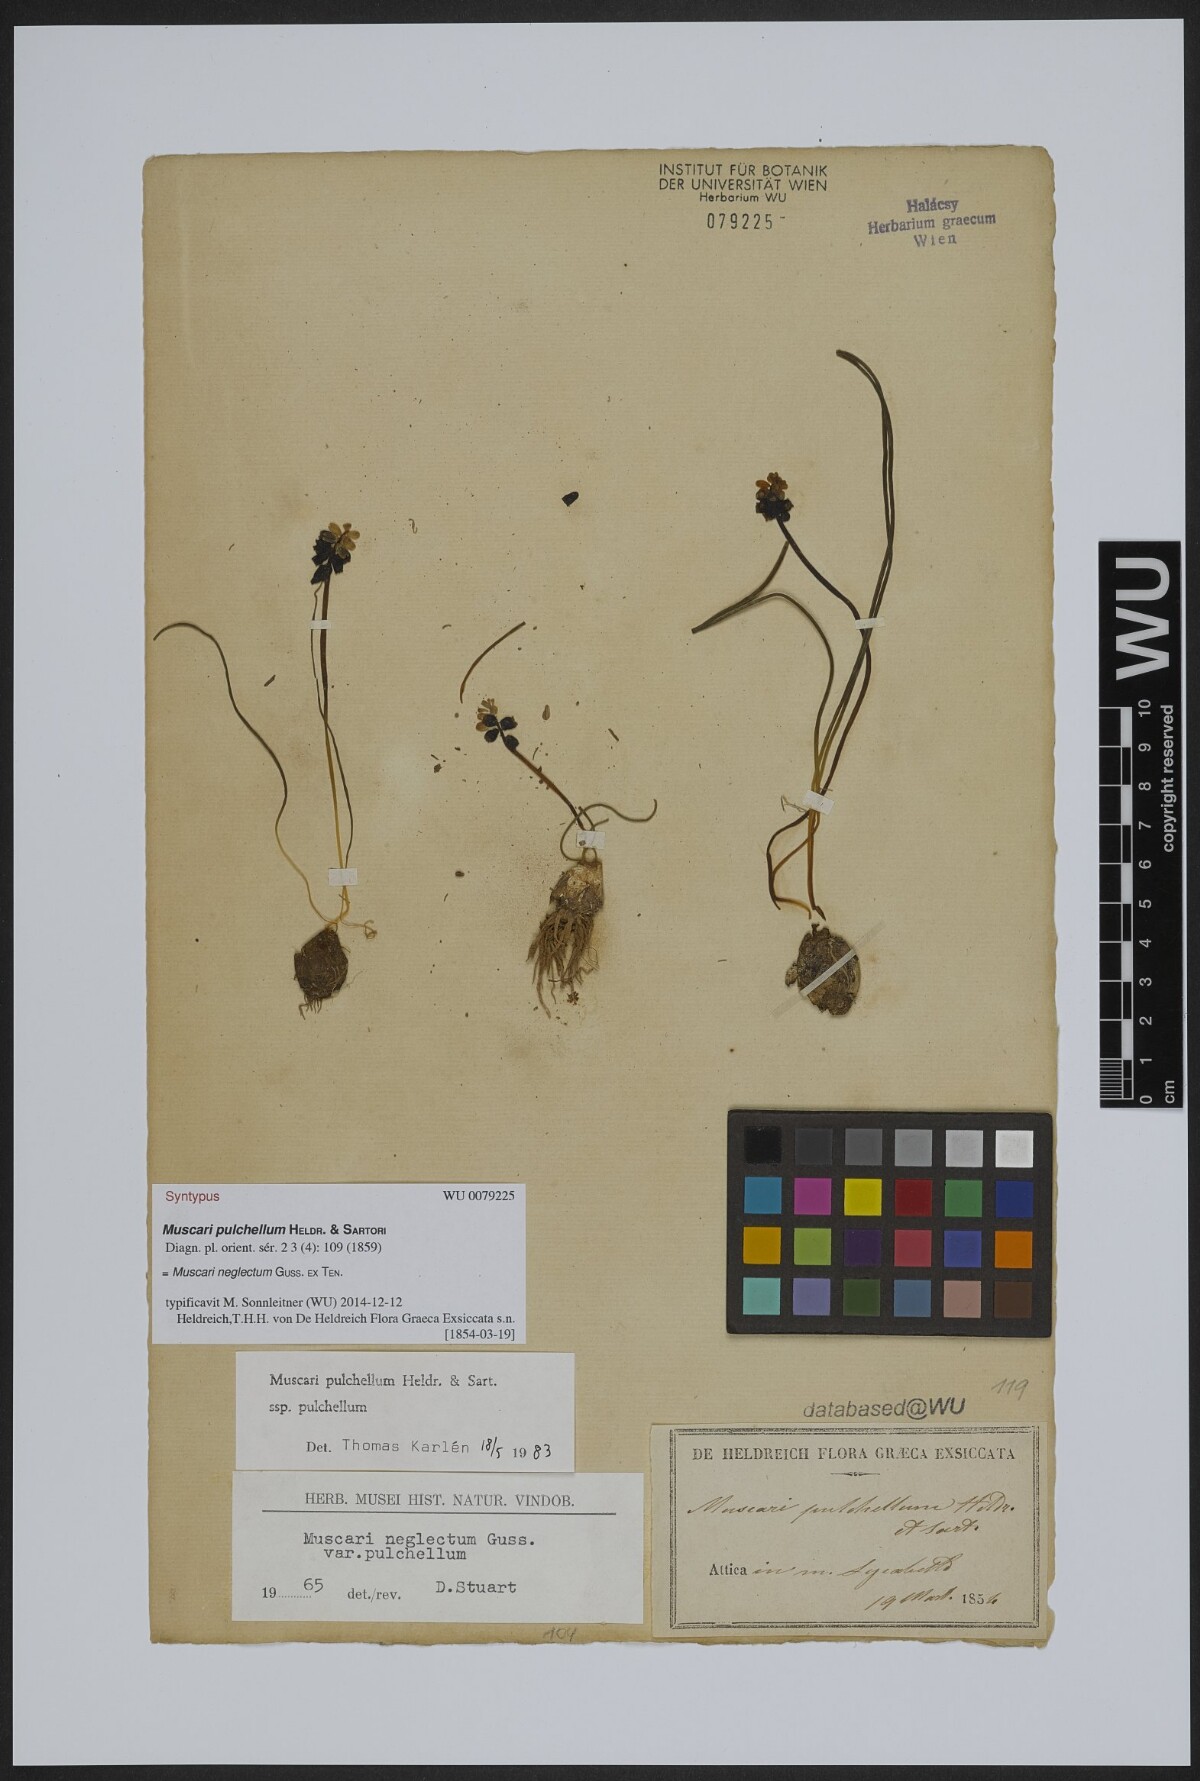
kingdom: Plantae
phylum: Tracheophyta
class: Liliopsida
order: Asparagales
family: Asparagaceae
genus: Muscari
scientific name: Muscari pulchellum
